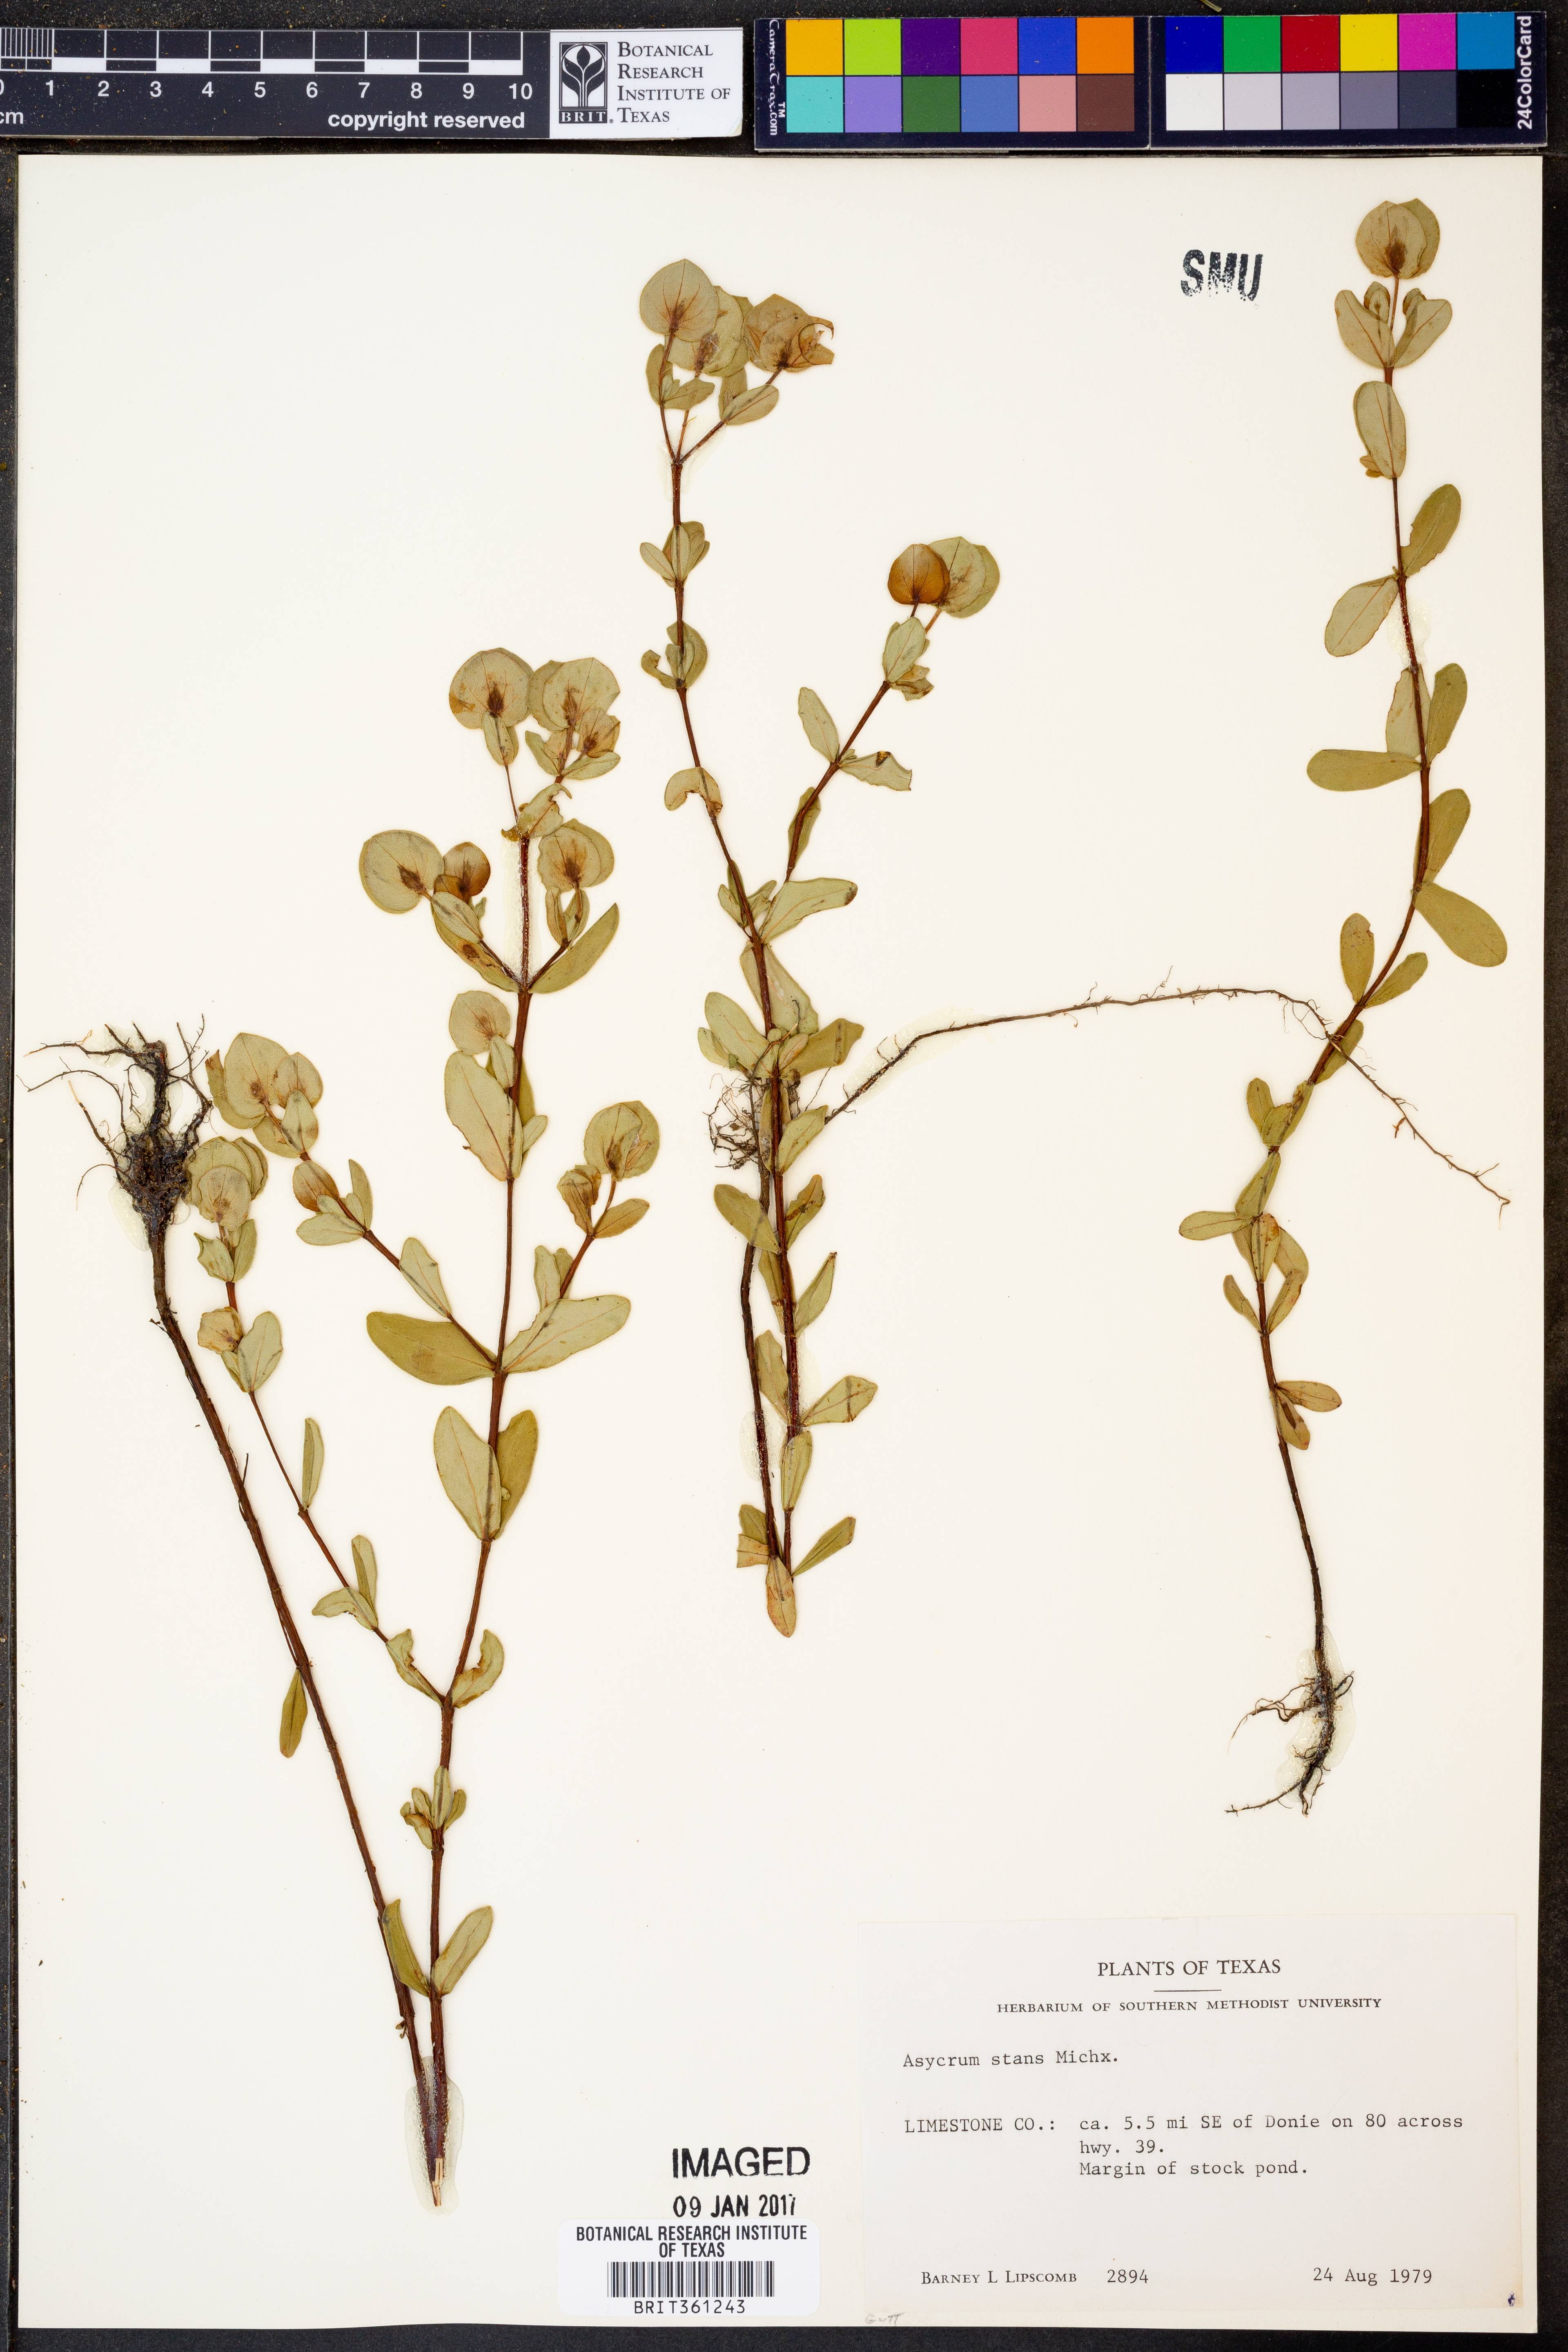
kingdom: Plantae
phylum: Tracheophyta
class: Magnoliopsida
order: Malpighiales
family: Hypericaceae
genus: Hypericum
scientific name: Hypericum crux-andreae
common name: St.-peter's-wort
